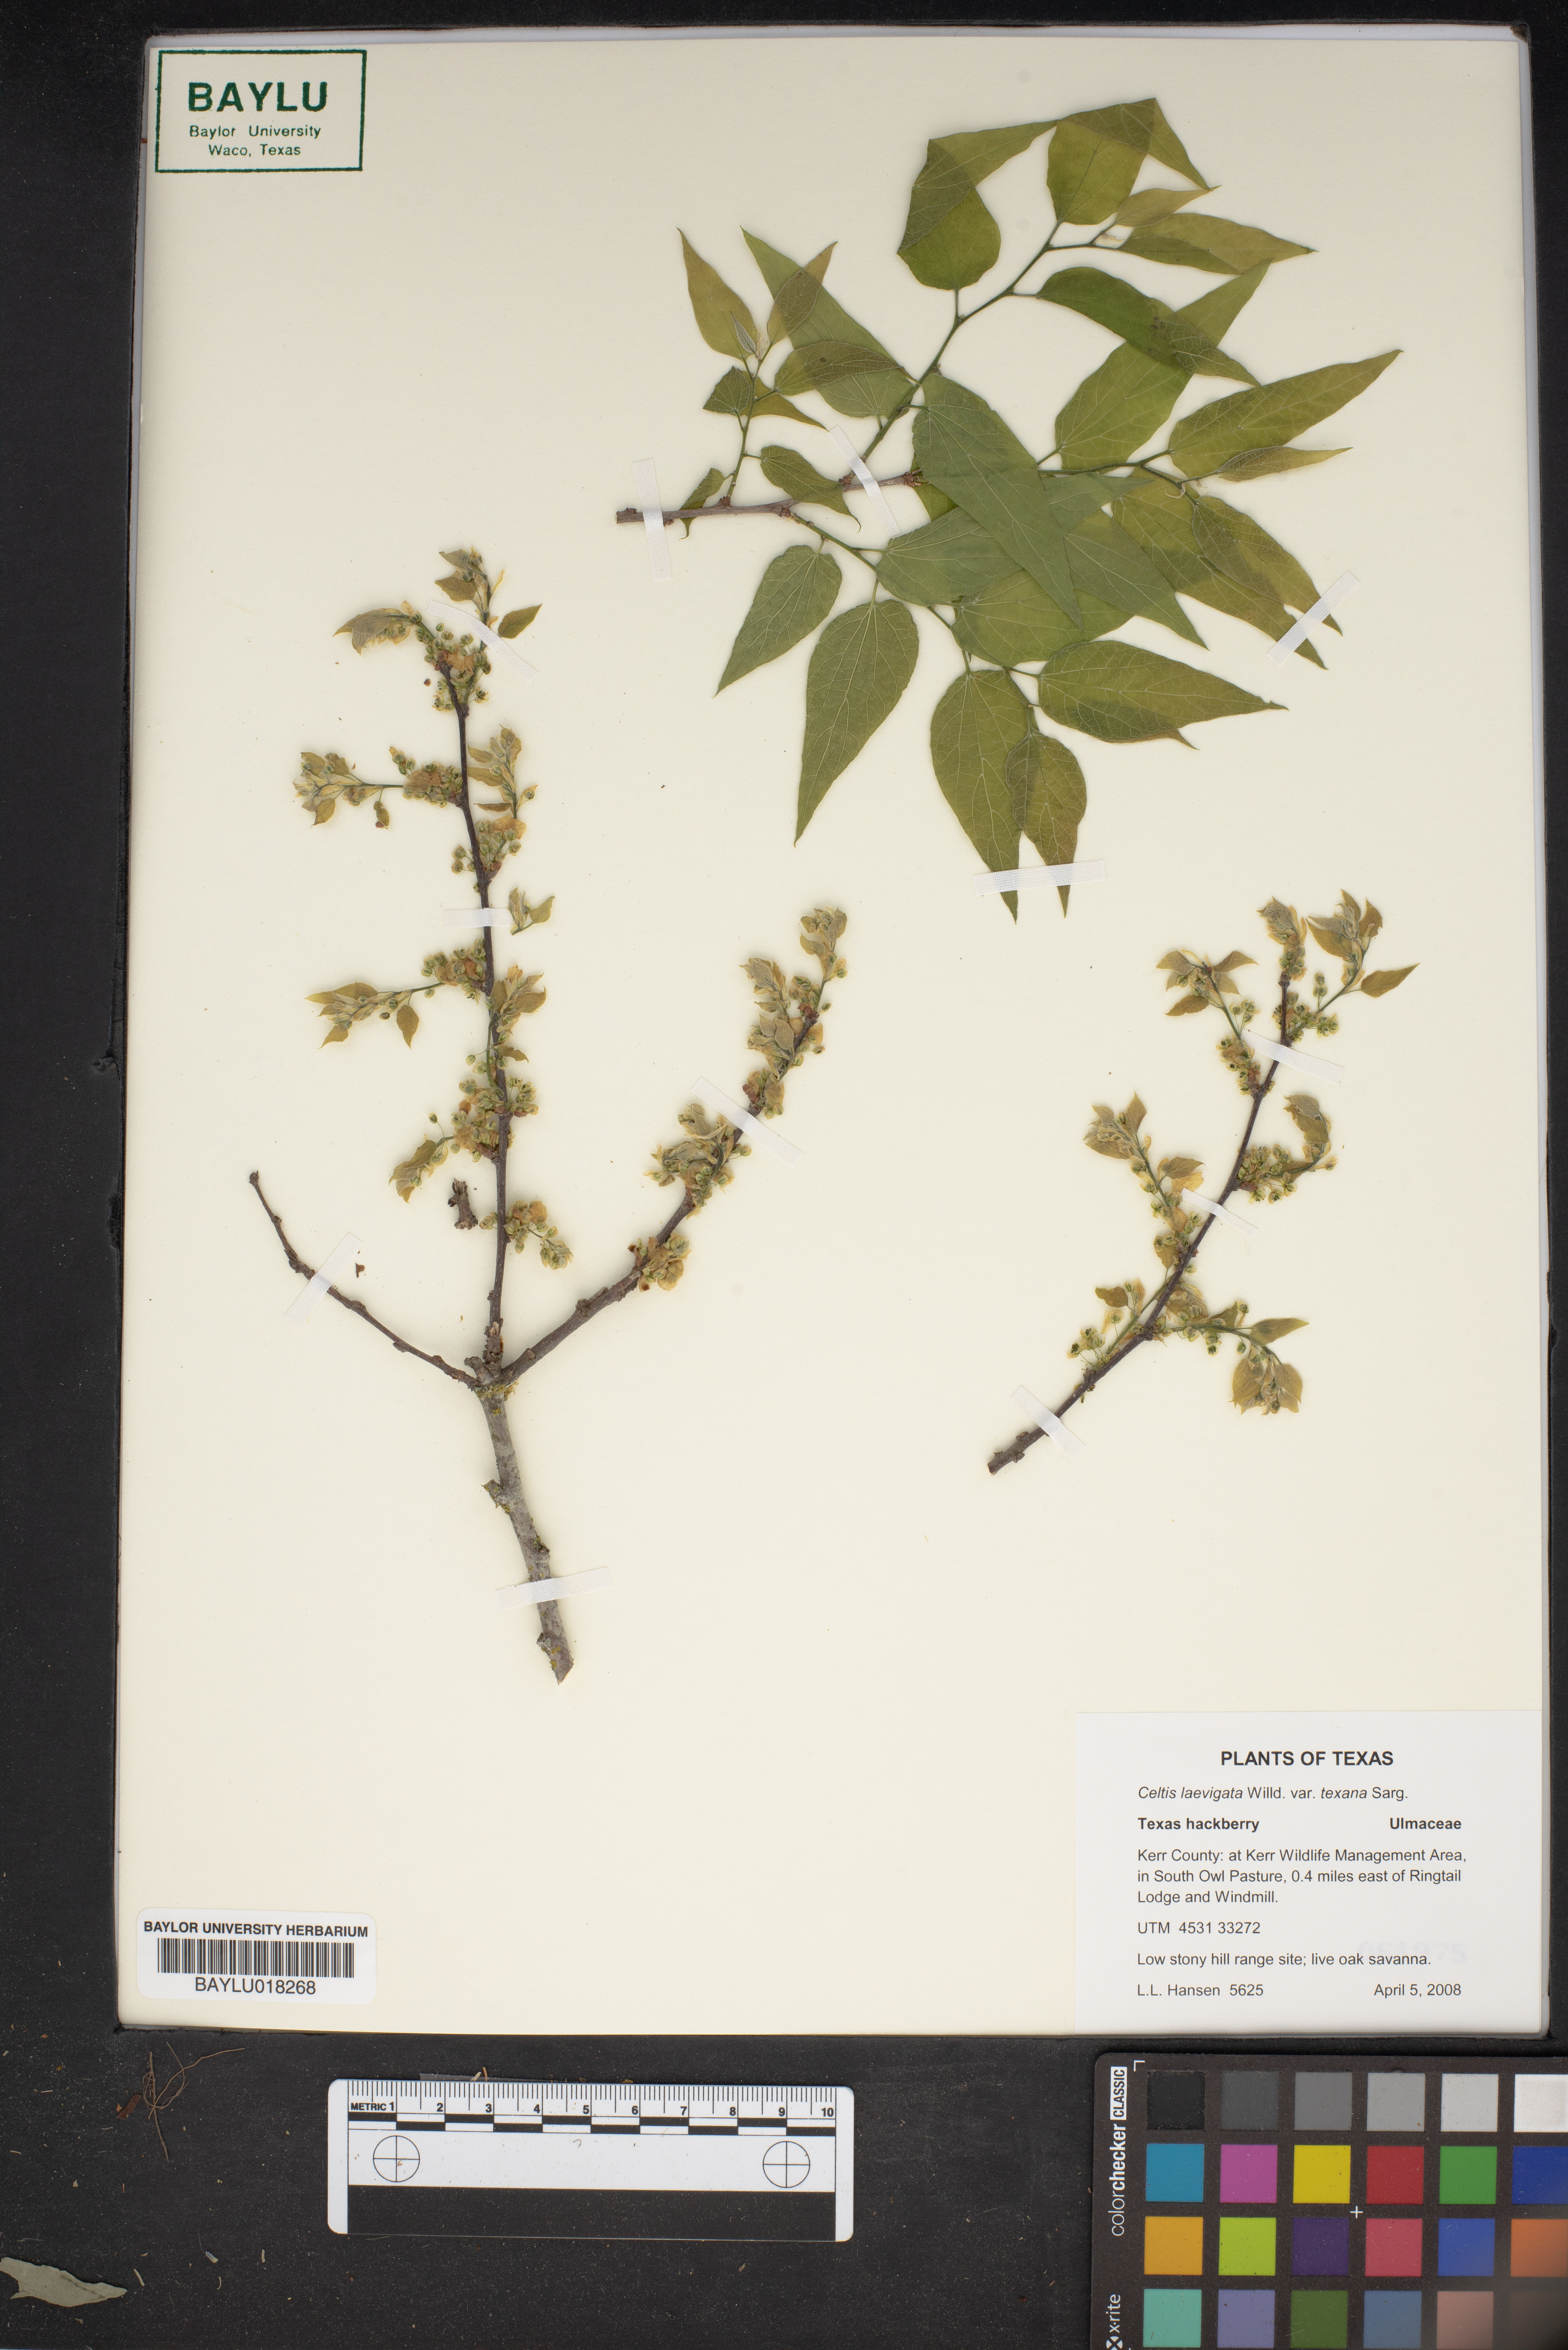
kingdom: Plantae
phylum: Tracheophyta
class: Magnoliopsida
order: Rosales
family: Cannabaceae
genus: Celtis
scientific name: Celtis laevigata
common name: Sugarberry
